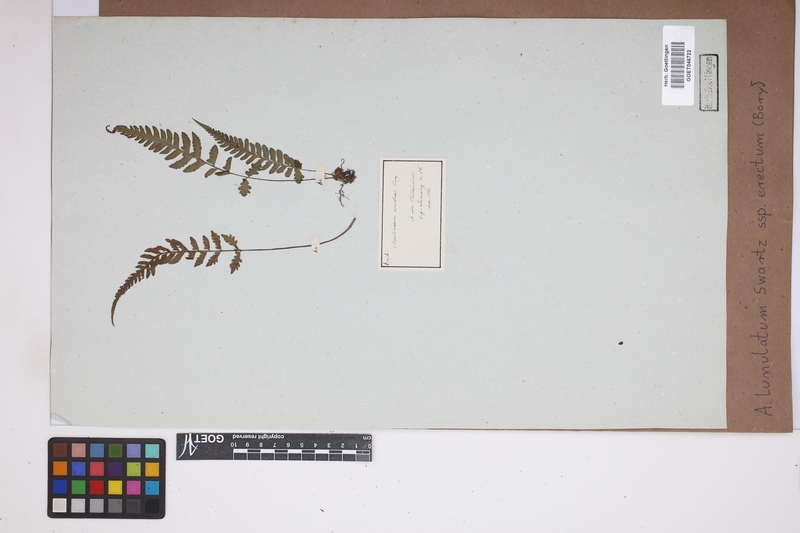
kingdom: Plantae
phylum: Tracheophyta
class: Polypodiopsida
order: Polypodiales
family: Aspleniaceae
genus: Asplenium
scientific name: Asplenium erectum
